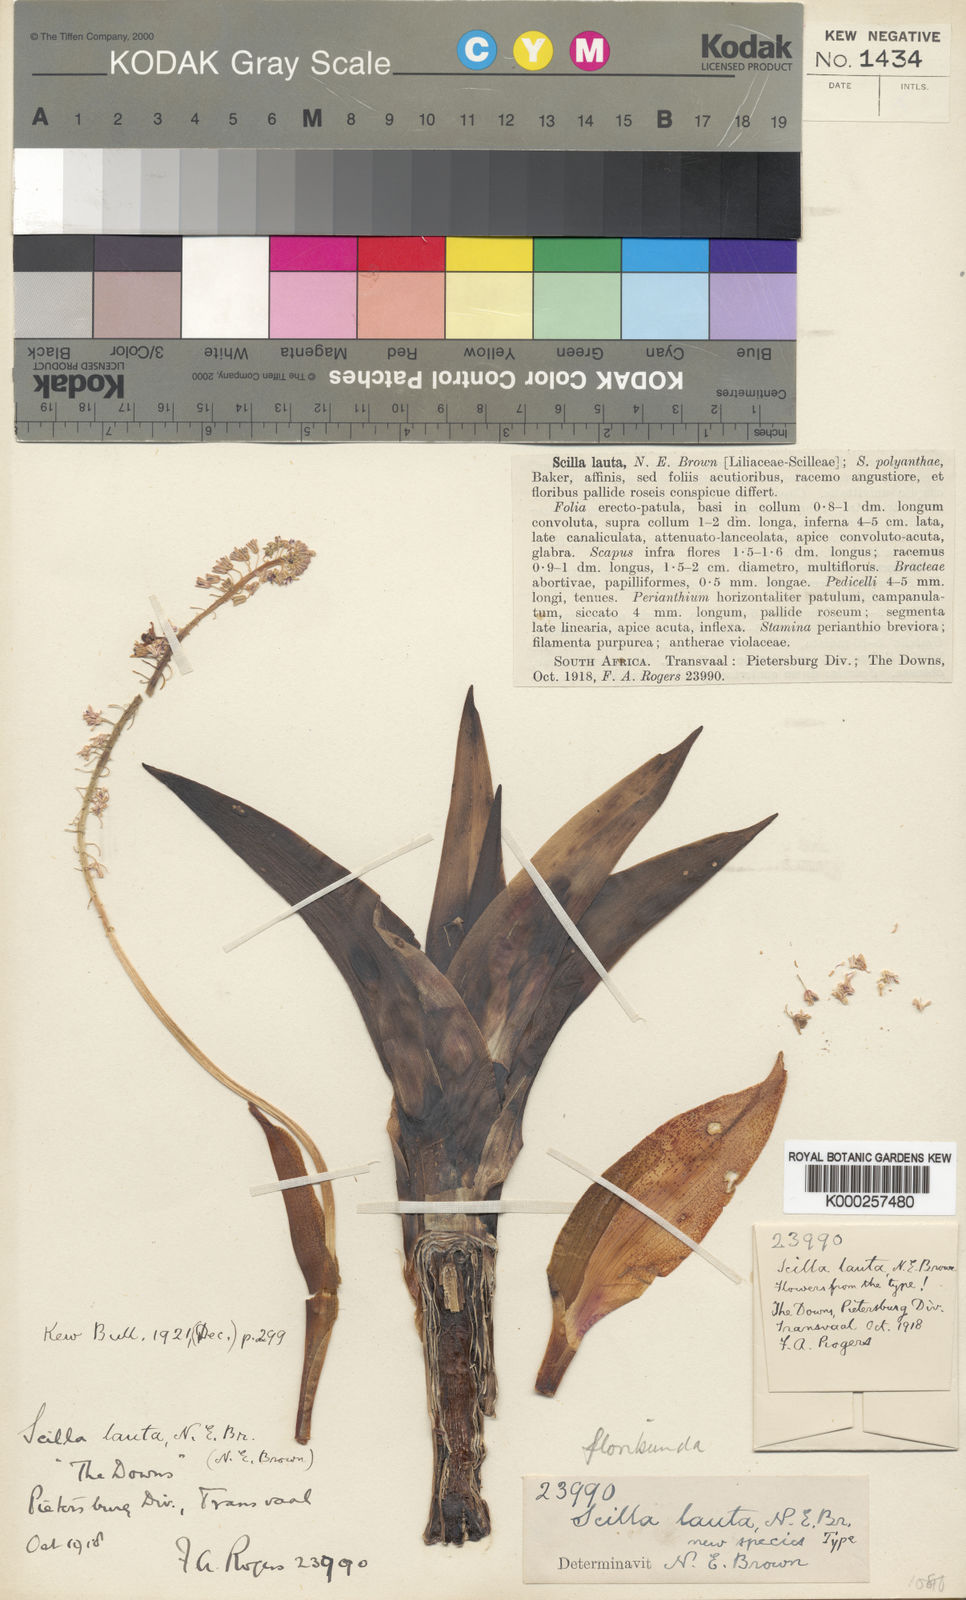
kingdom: Plantae
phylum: Tracheophyta
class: Liliopsida
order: Asparagales
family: Asparagaceae
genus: Ledebouria
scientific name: Ledebouria floribunda
